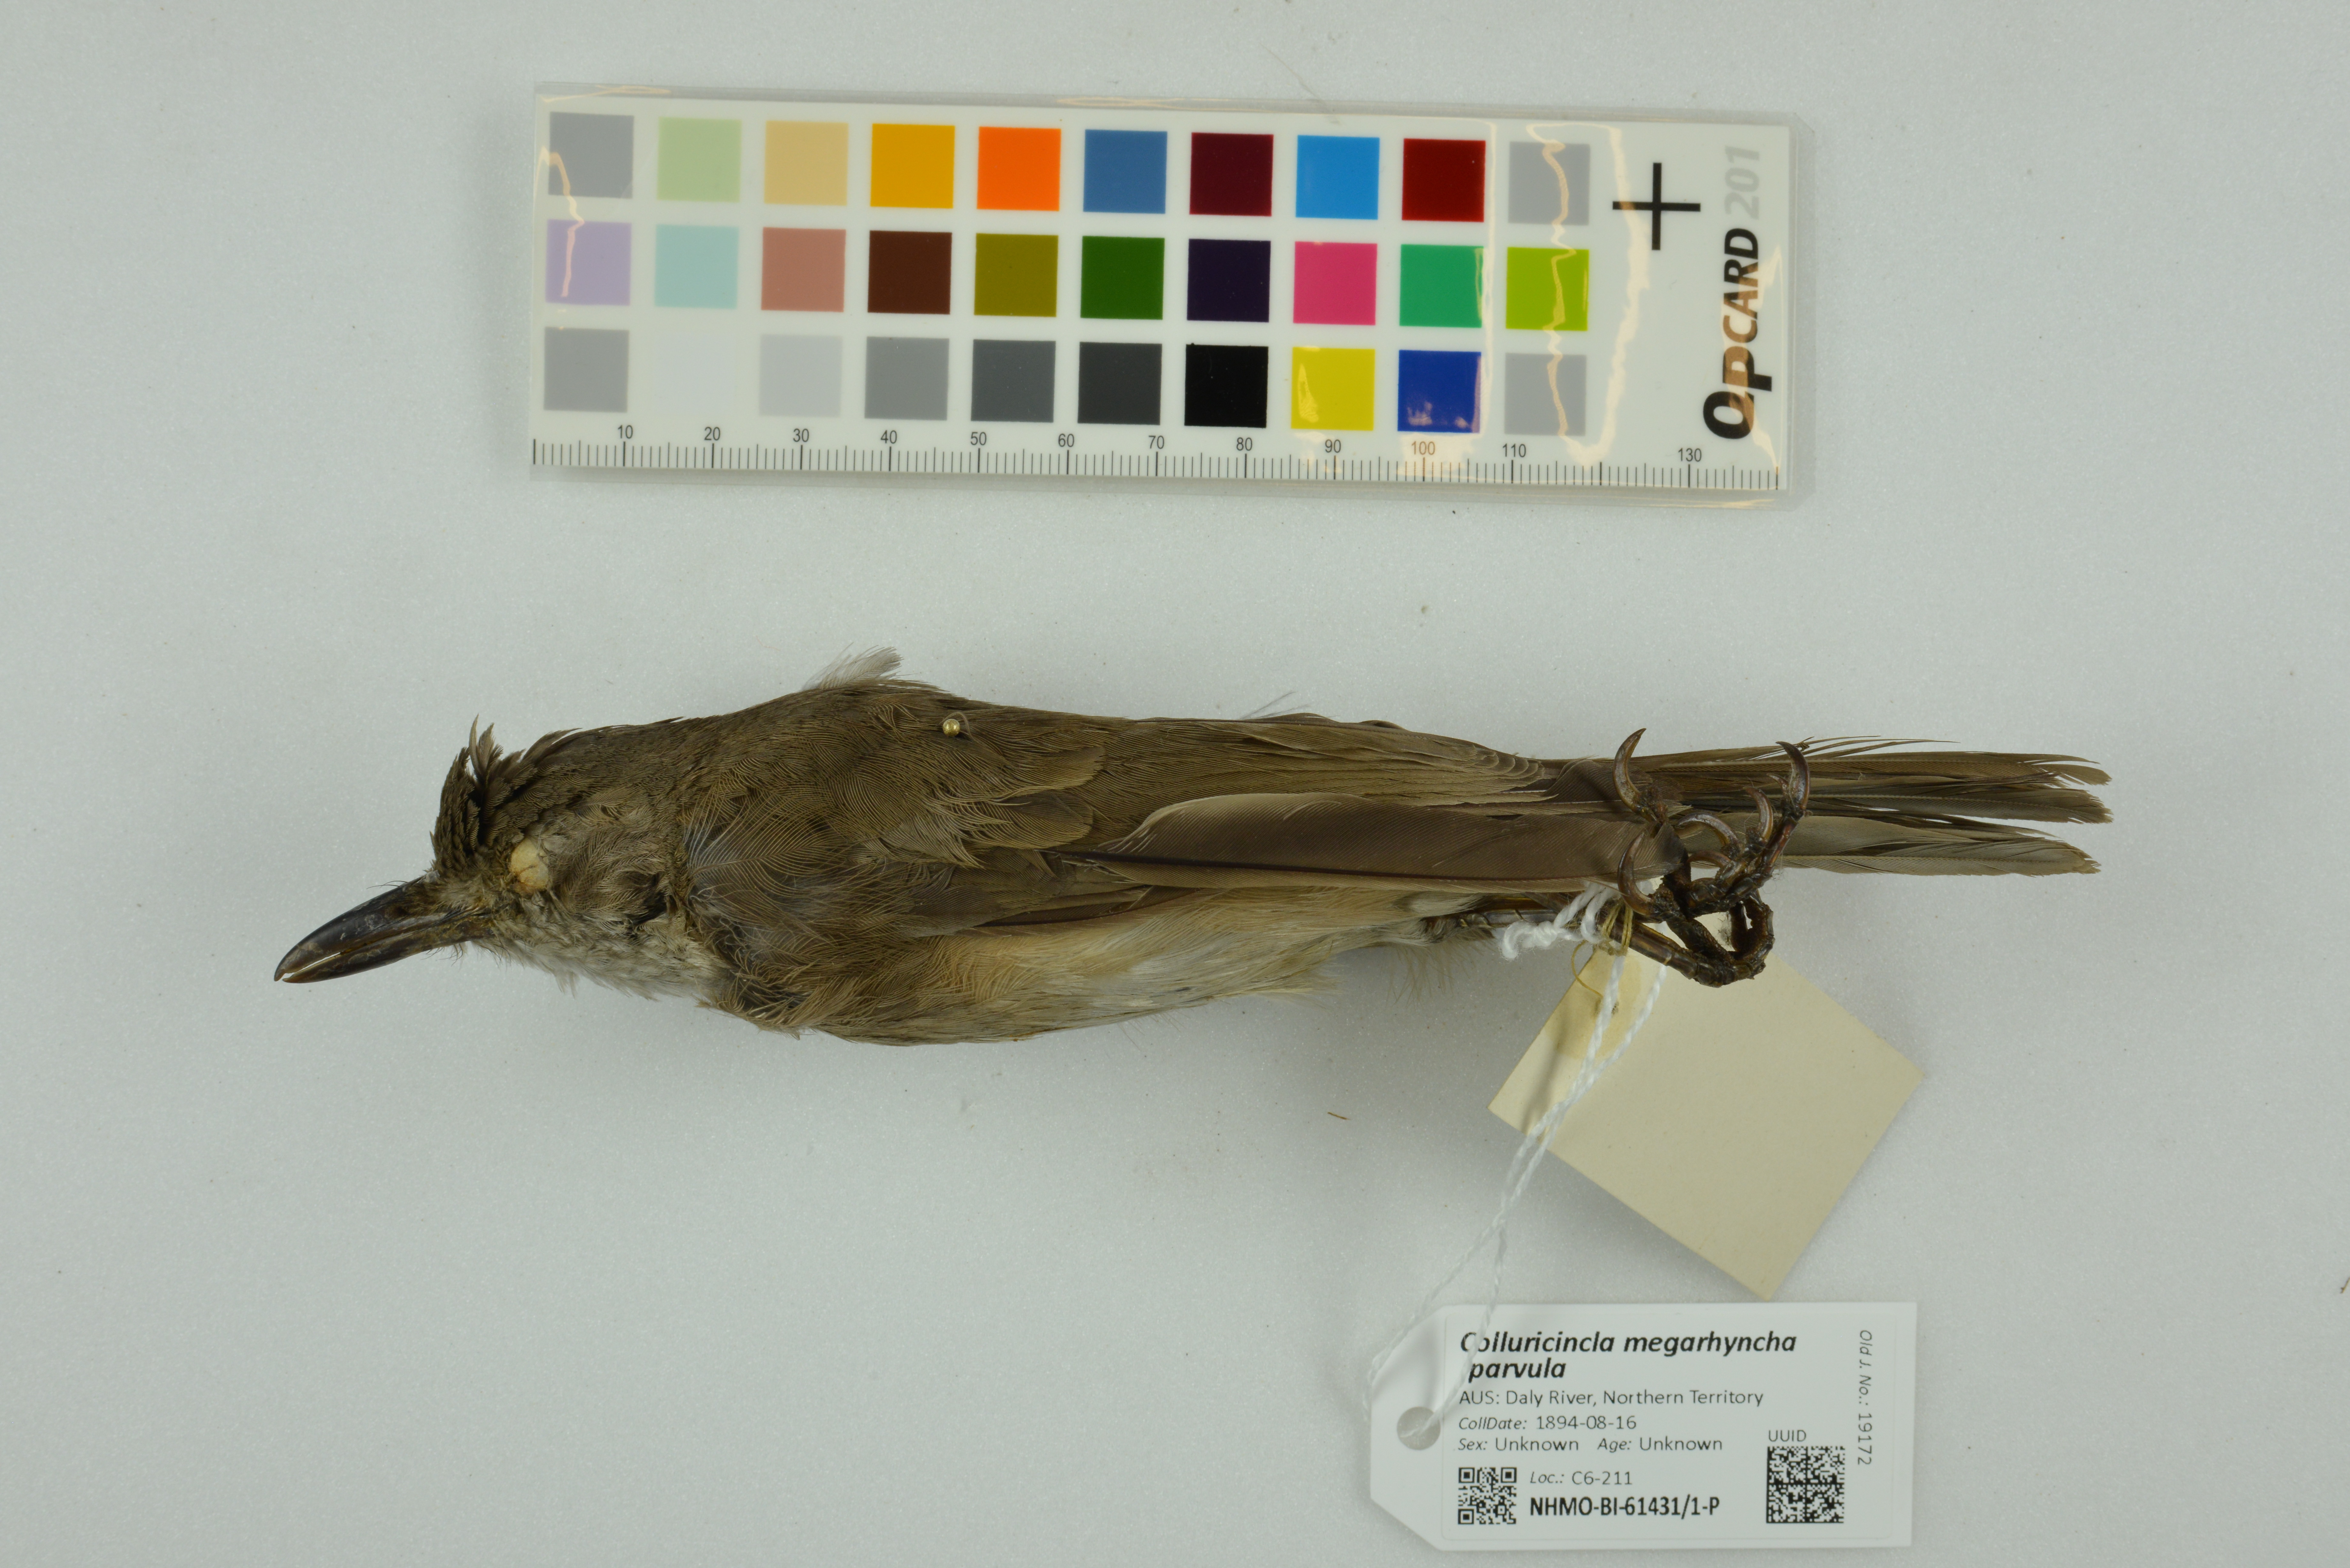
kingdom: Animalia
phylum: Chordata
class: Aves
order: Passeriformes
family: Pachycephalidae
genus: Colluricincla
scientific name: Colluricincla megarhyncha
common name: Little shrikethrush
